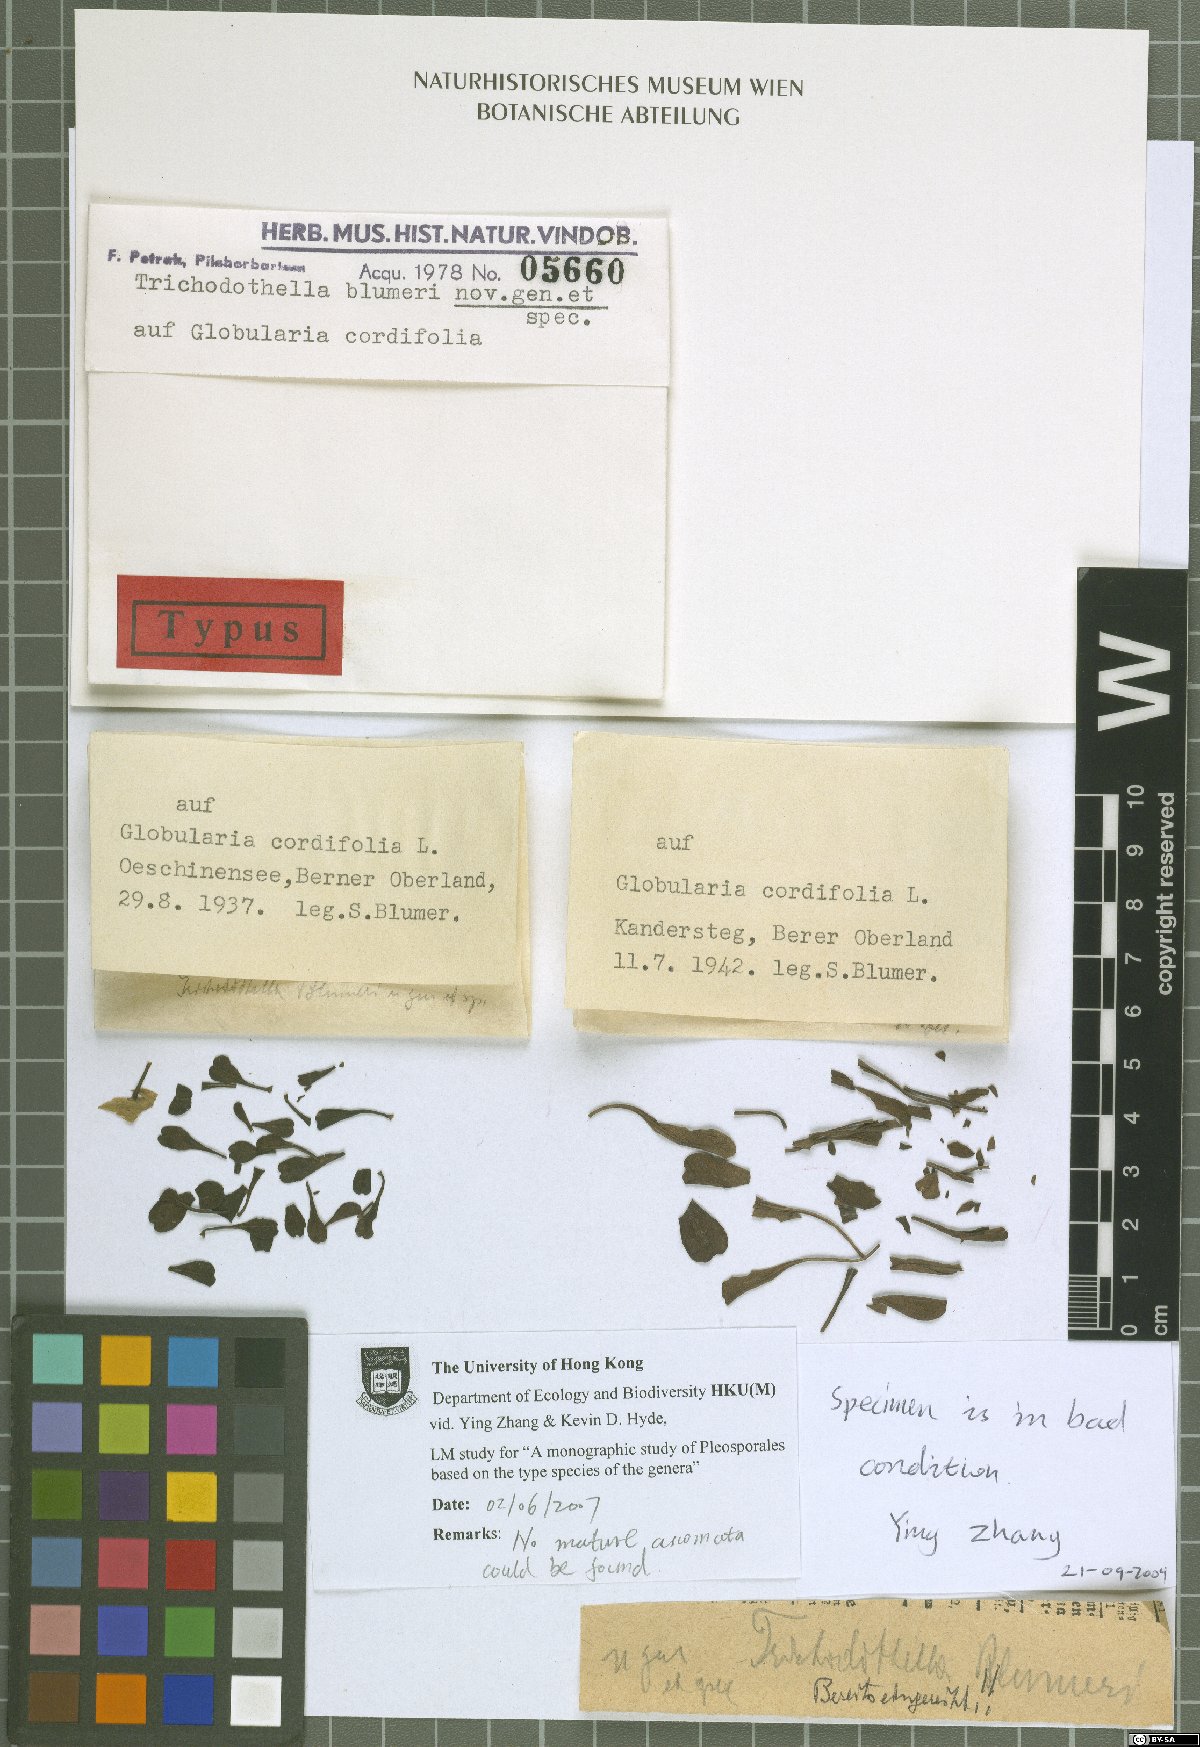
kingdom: Fungi
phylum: Ascomycota
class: Dothideomycetes
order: Venturiales
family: Venturiaceae
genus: Trichodothella
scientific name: Trichodothella blumeri
